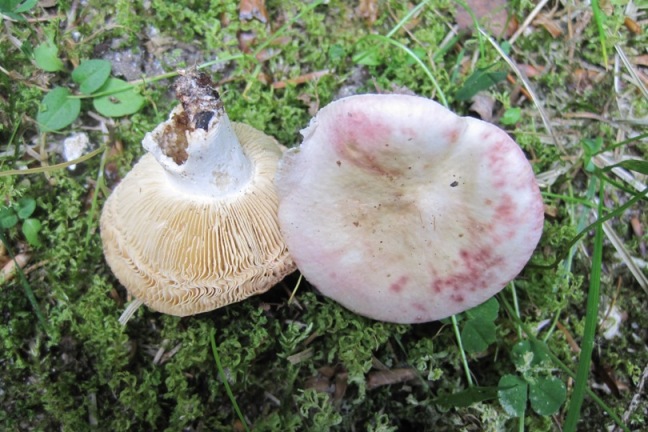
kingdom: Fungi
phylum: Basidiomycota
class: Agaricomycetes
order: Russulales
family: Russulaceae
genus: Russula
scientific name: Russula depallens
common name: falmende skørhat
